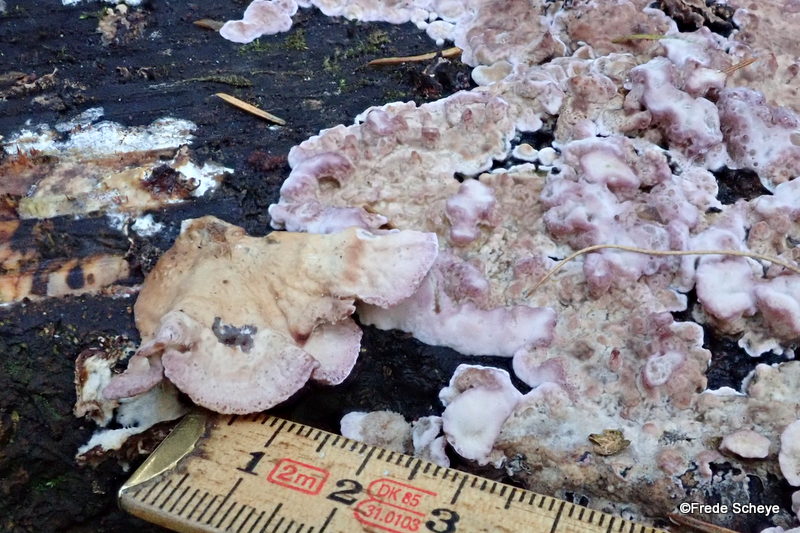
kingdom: Fungi
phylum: Basidiomycota
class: Agaricomycetes
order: Agaricales
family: Cyphellaceae
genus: Chondrostereum
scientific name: Chondrostereum purpureum
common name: purpurlædersvamp
